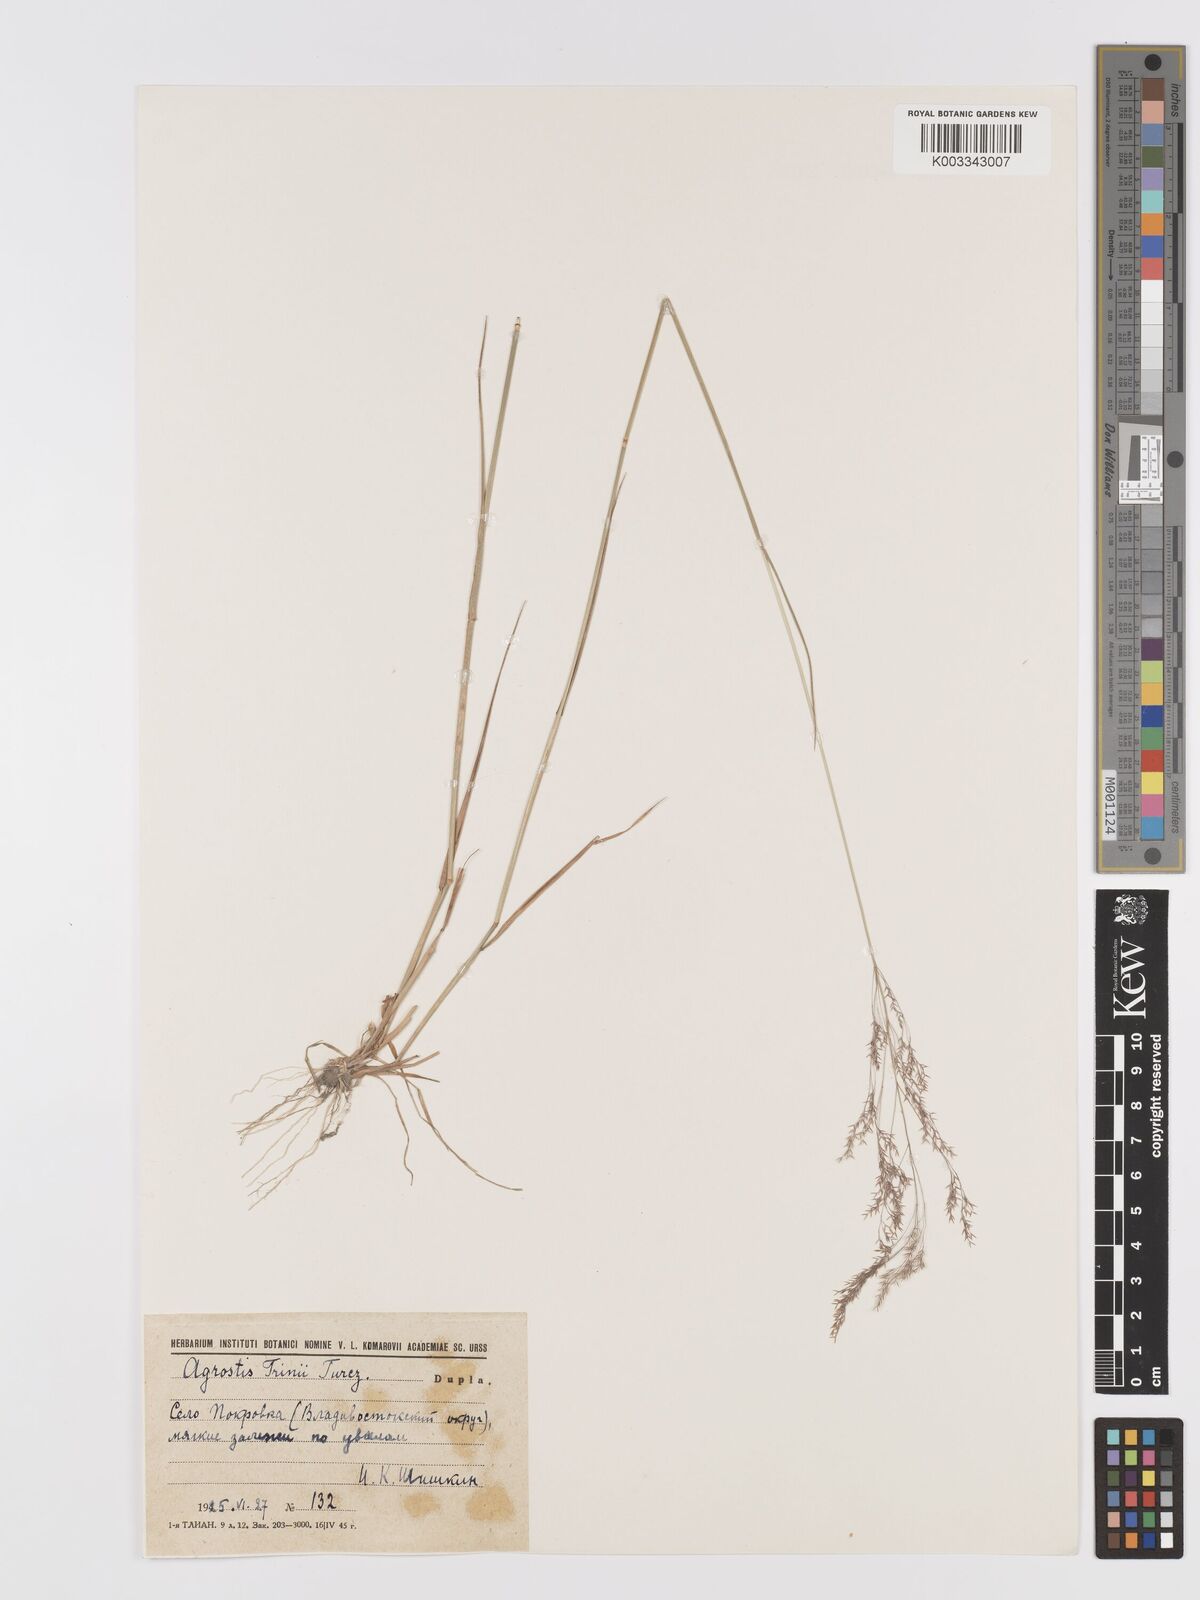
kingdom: Plantae
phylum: Tracheophyta
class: Liliopsida
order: Poales
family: Poaceae
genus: Agrostis
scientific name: Agrostis vinealis
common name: Brown bent
